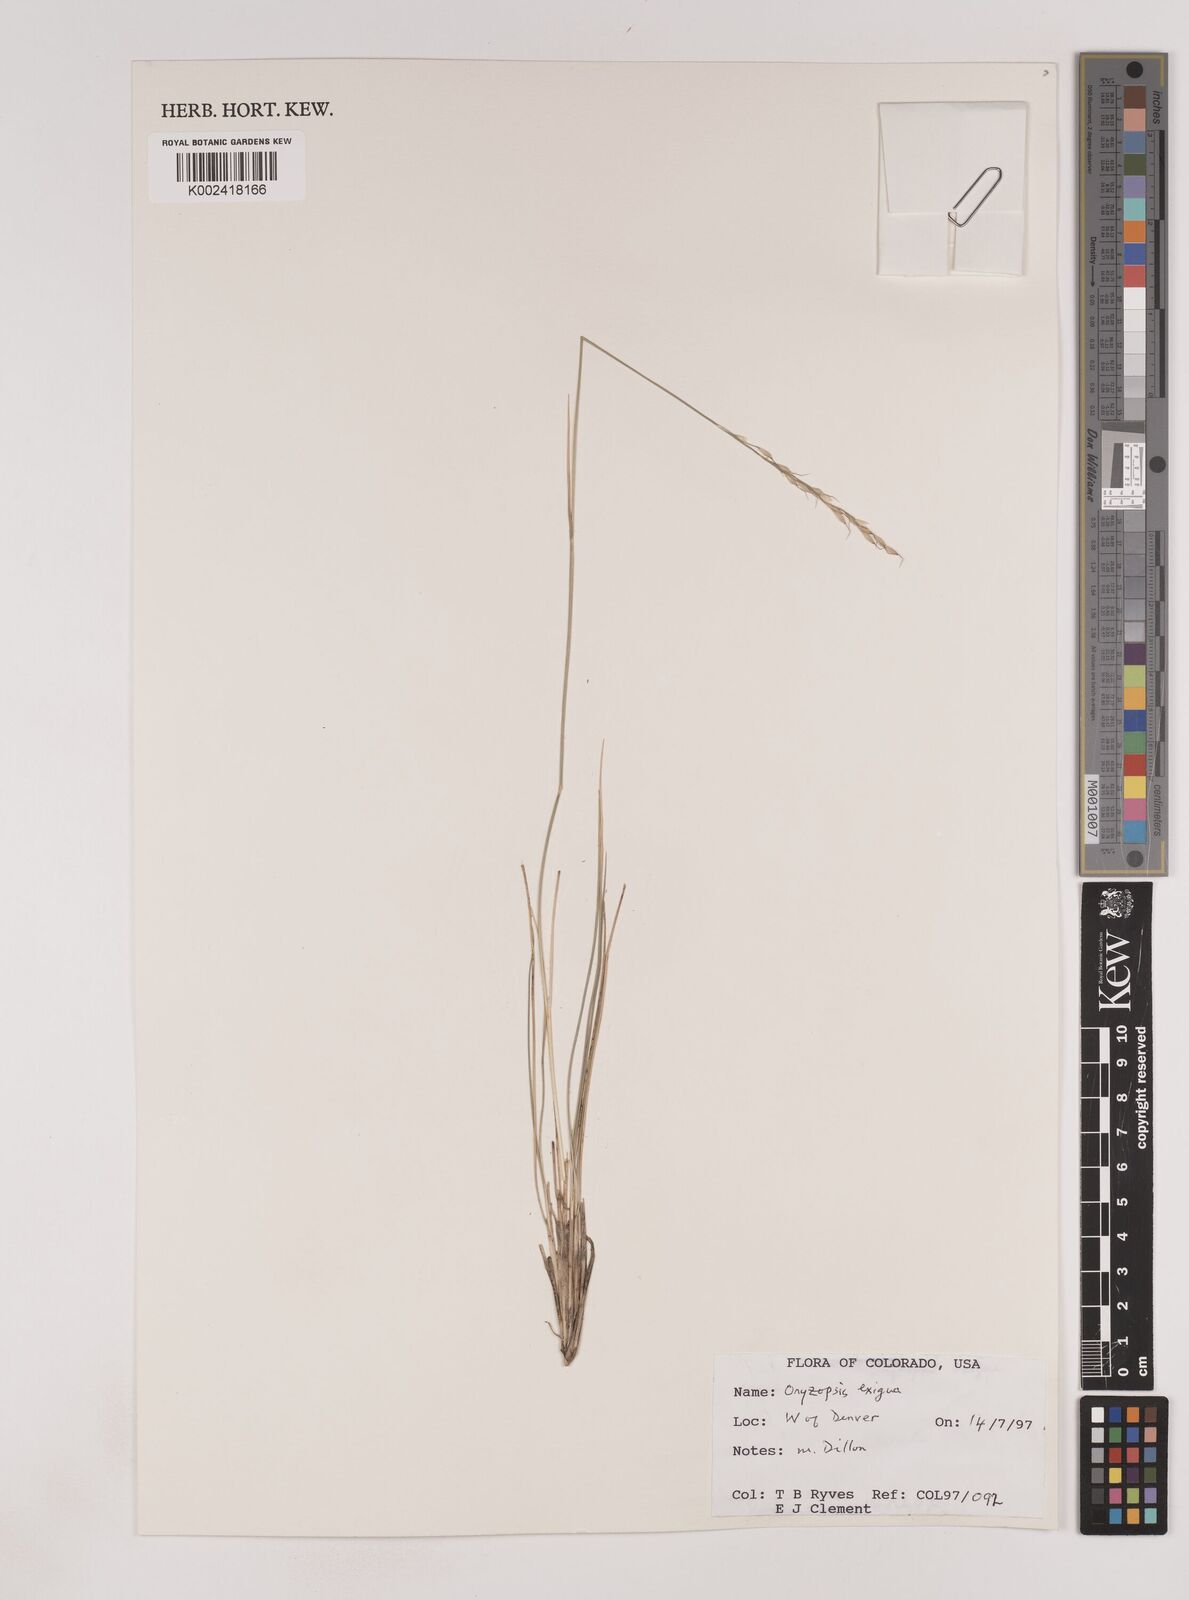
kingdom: Plantae
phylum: Tracheophyta
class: Liliopsida
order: Poales
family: Poaceae
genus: Piptatheropsis
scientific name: Piptatheropsis exigua
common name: Little mountain ricegrass
